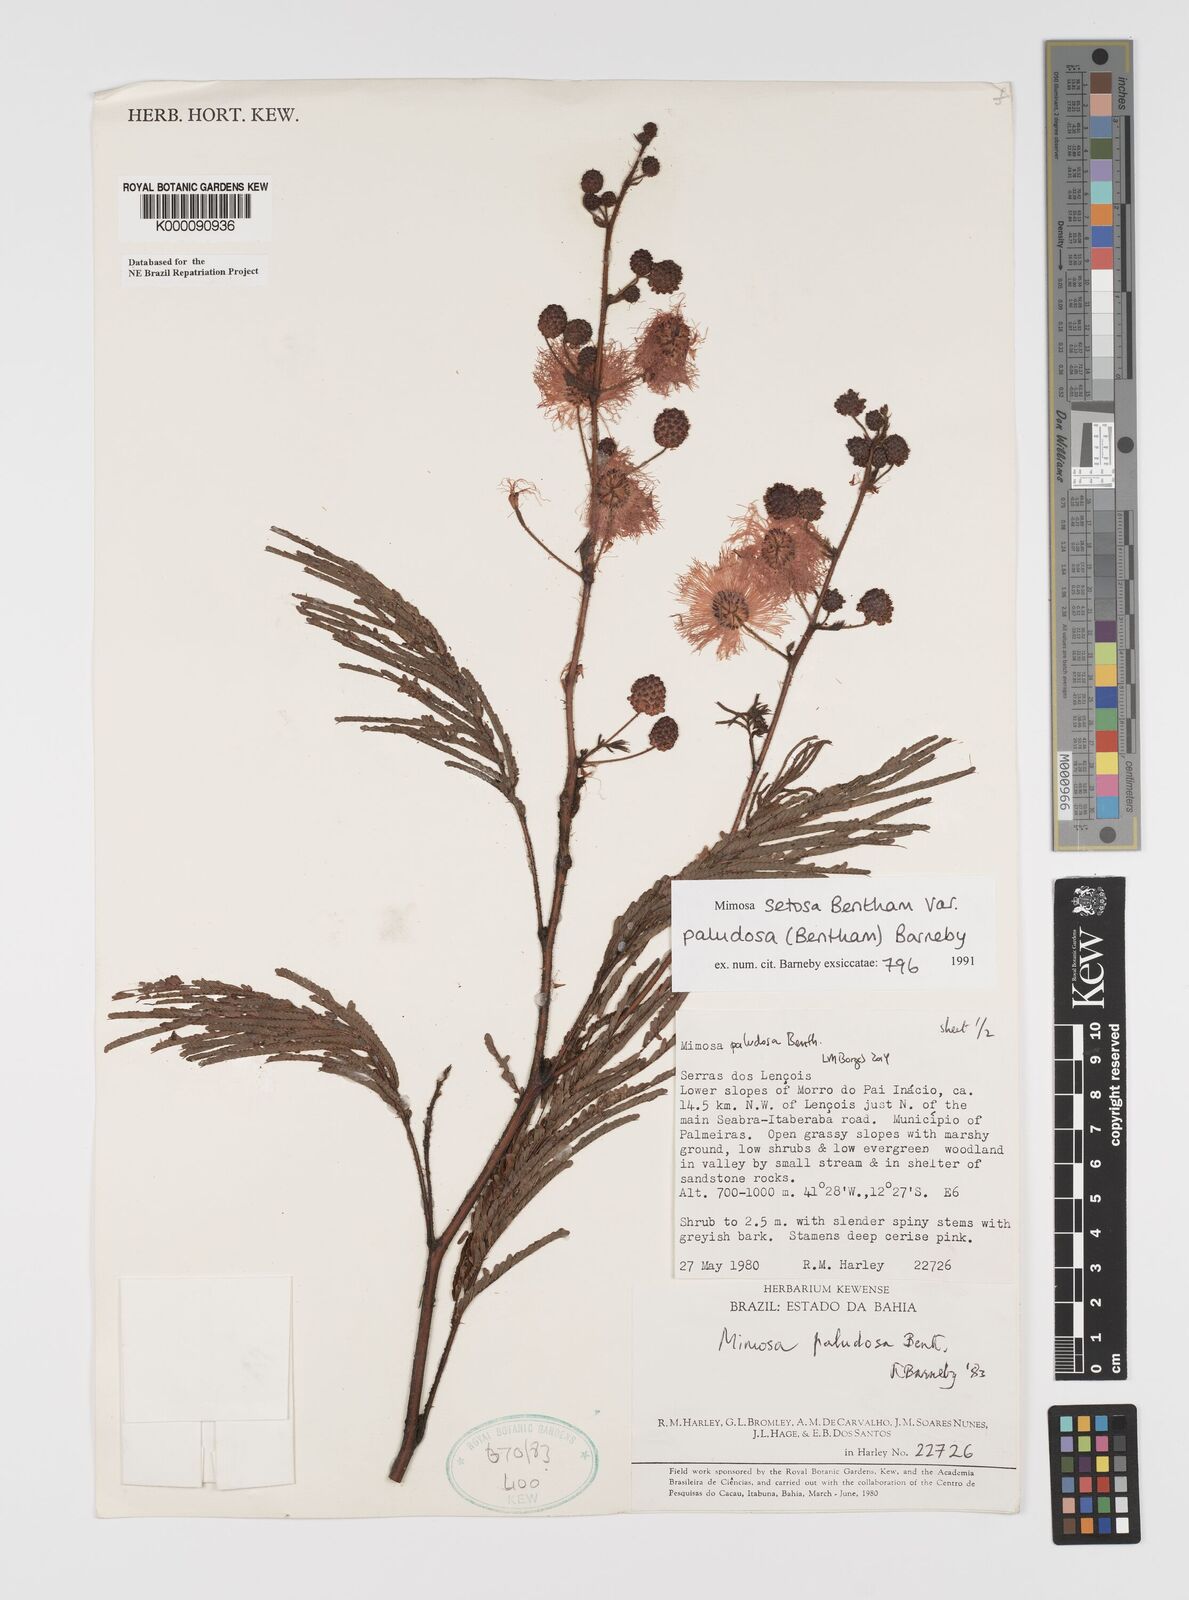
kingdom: Plantae
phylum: Tracheophyta
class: Magnoliopsida
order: Fabales
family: Fabaceae
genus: Mimosa
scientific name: Mimosa paludosa
